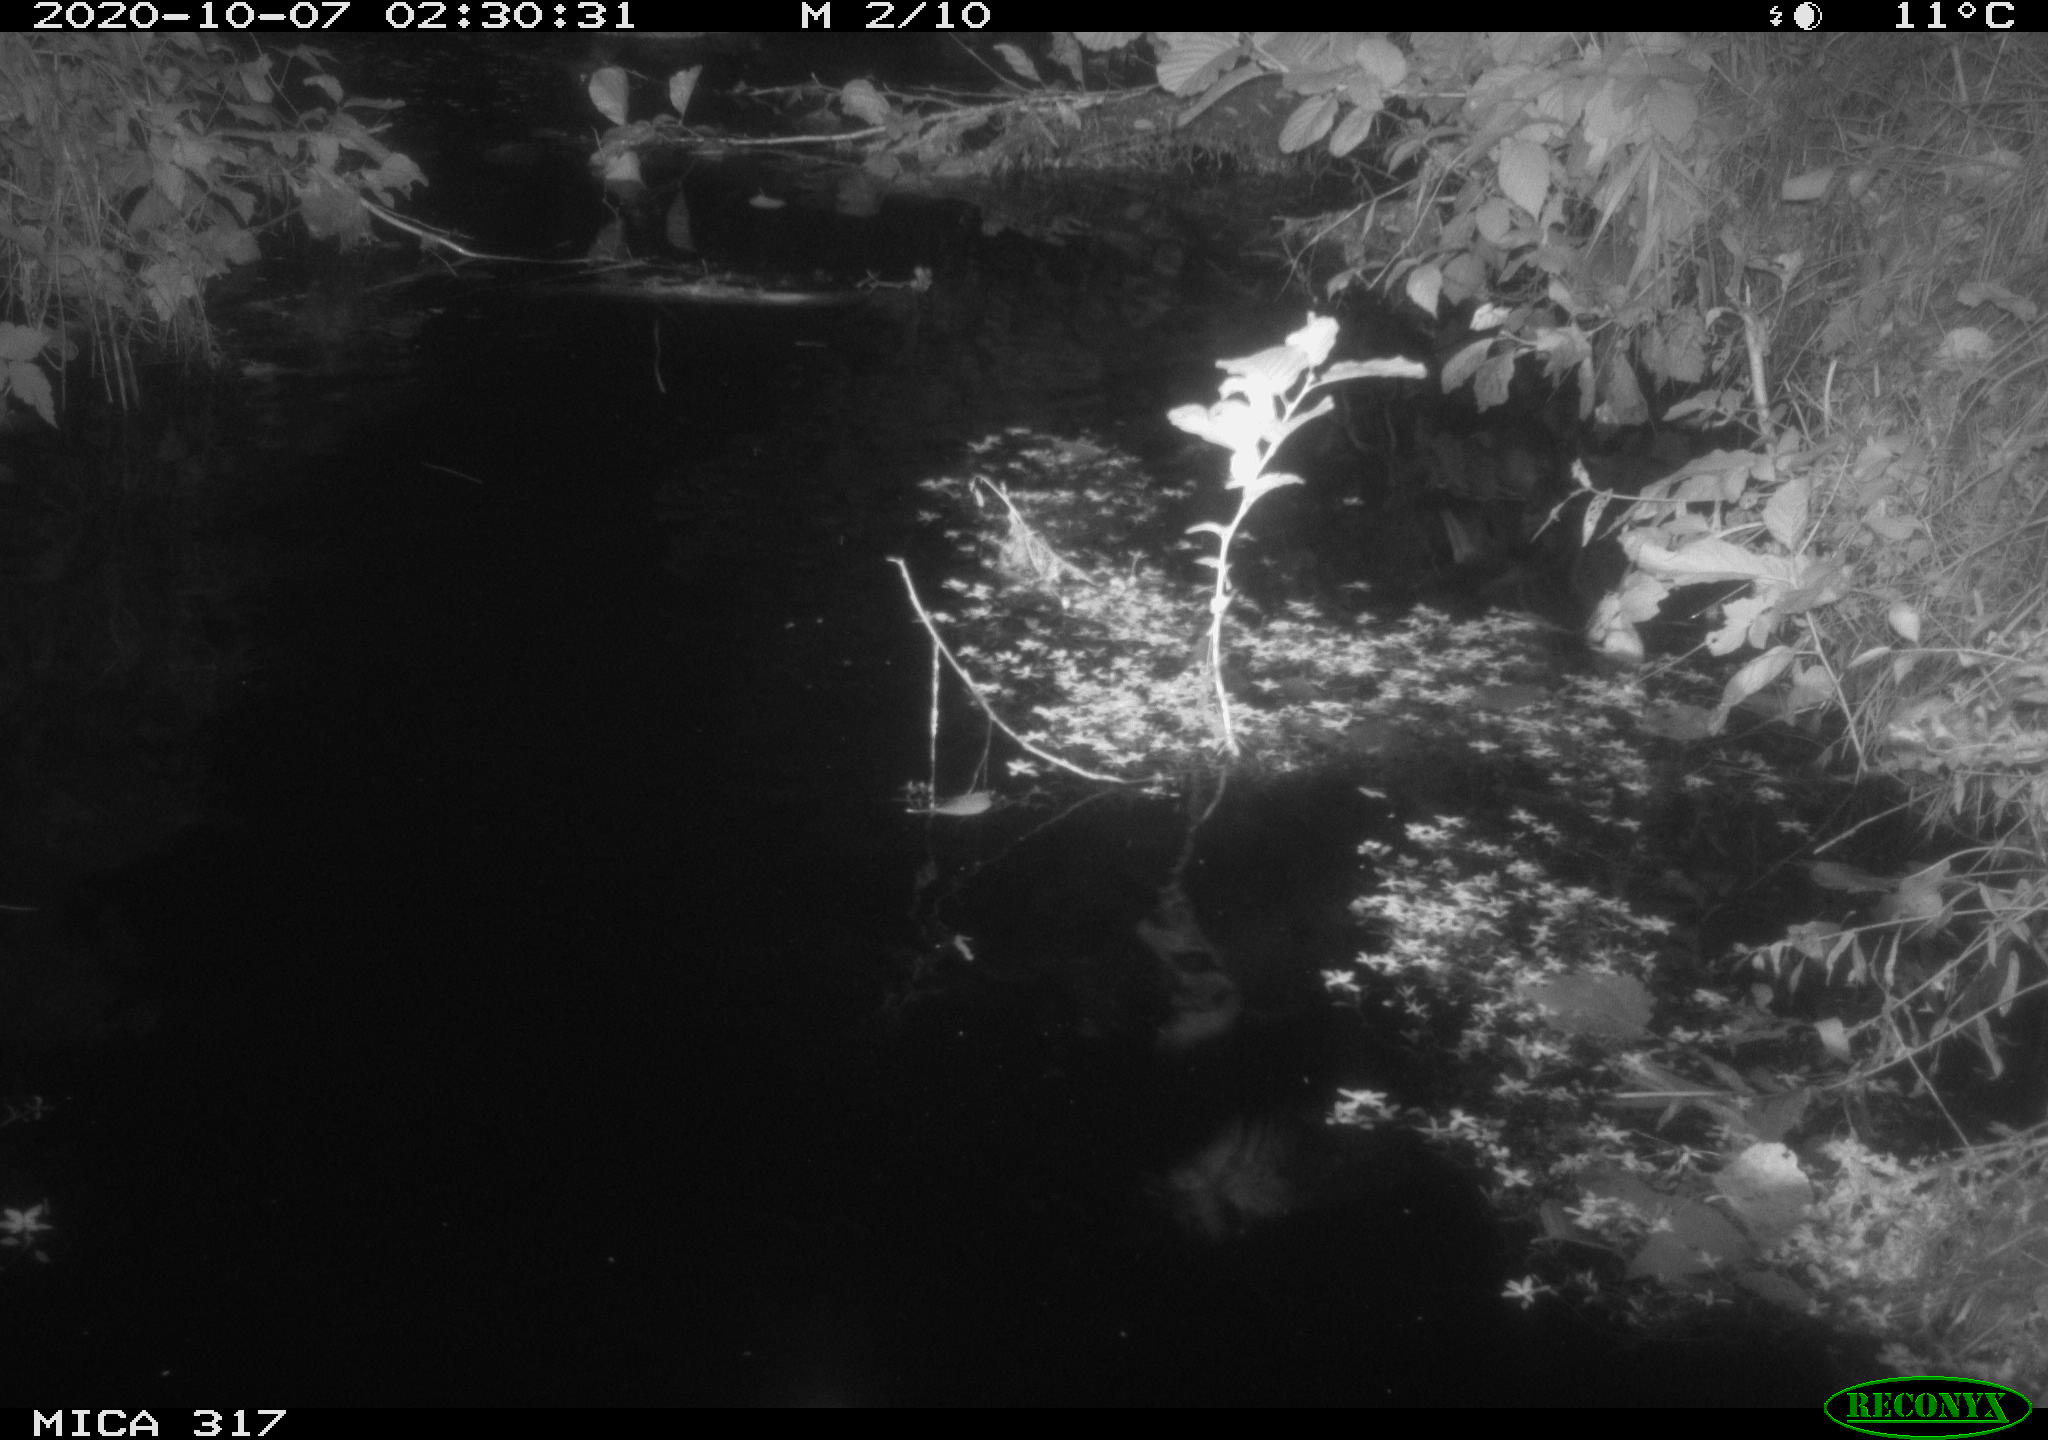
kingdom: Animalia
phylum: Chordata
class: Aves
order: Anseriformes
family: Anatidae
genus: Anas
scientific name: Anas platyrhynchos
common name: Mallard
